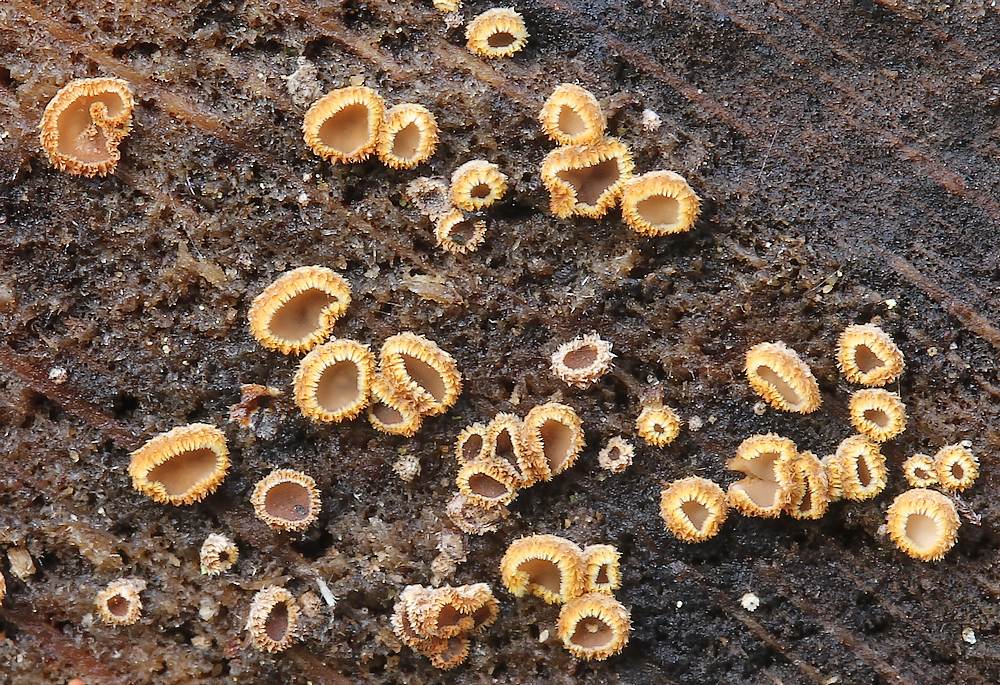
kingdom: Fungi
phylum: Ascomycota
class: Leotiomycetes
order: Helotiales
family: Lachnaceae
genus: Trichopeziza
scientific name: Trichopeziza subsulphurea
